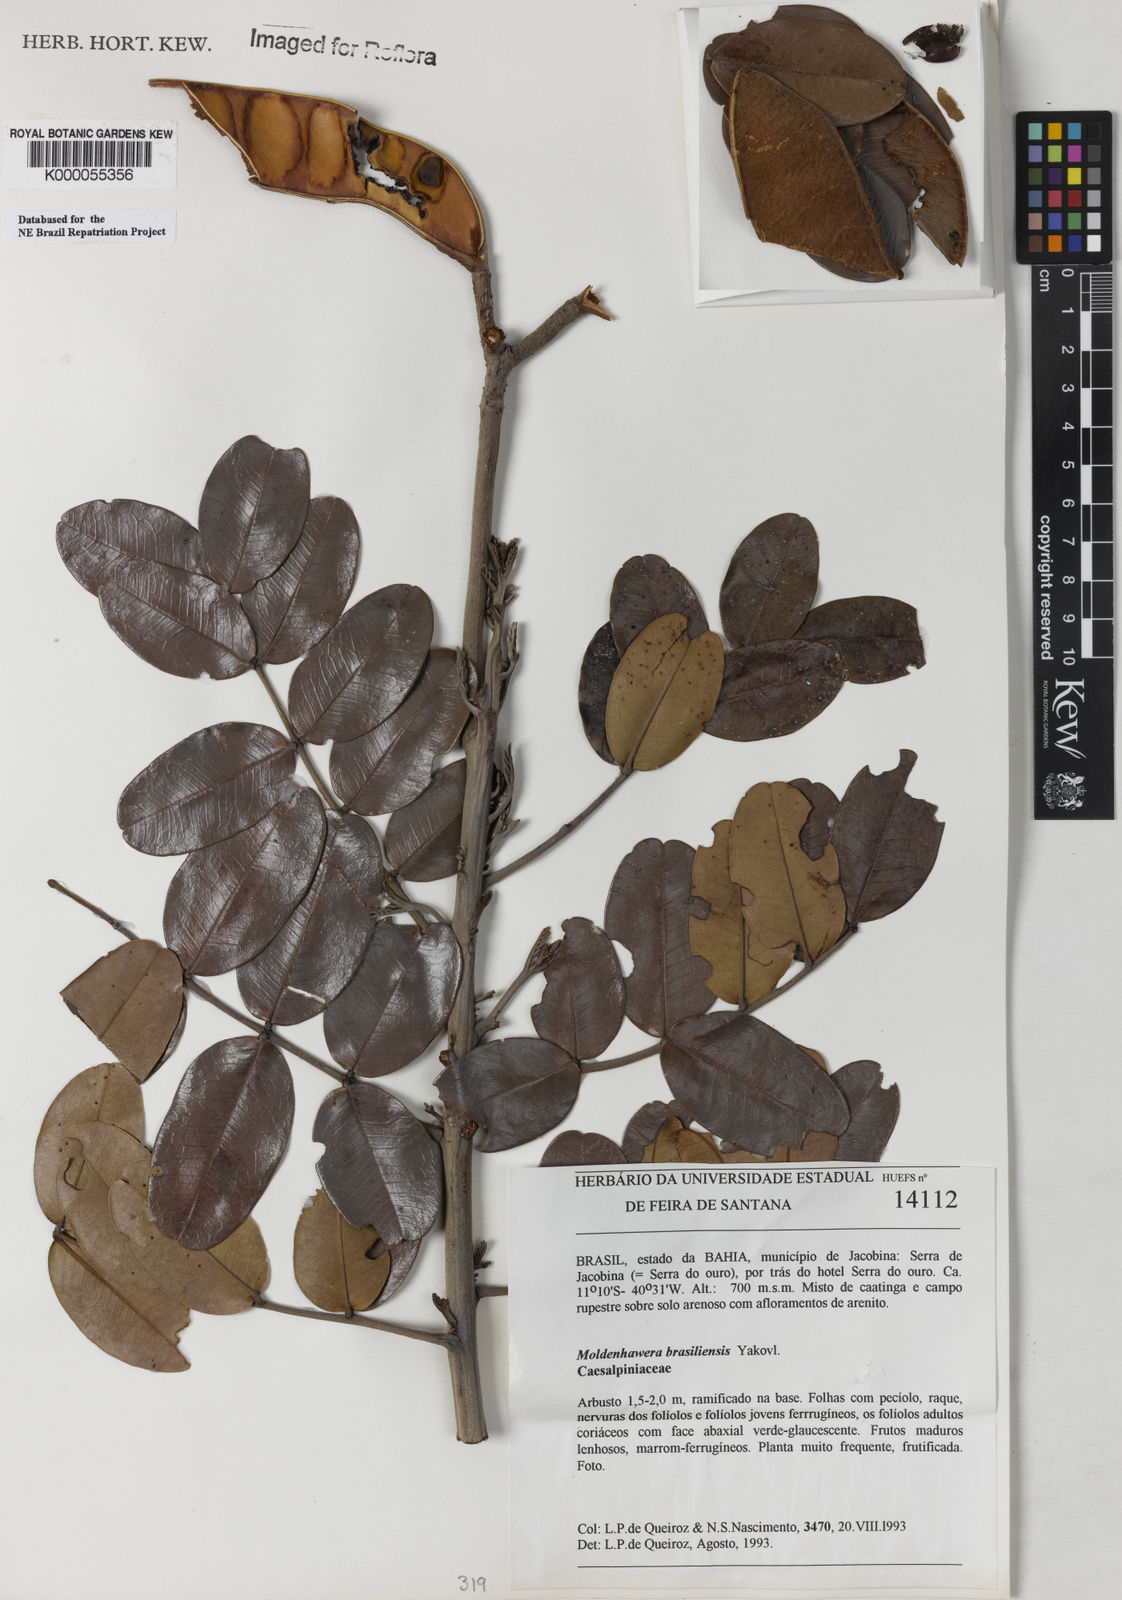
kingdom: Plantae
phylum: Tracheophyta
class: Magnoliopsida
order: Fabales
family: Fabaceae
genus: Moldenhawera
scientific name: Moldenhawera brasiliensis
